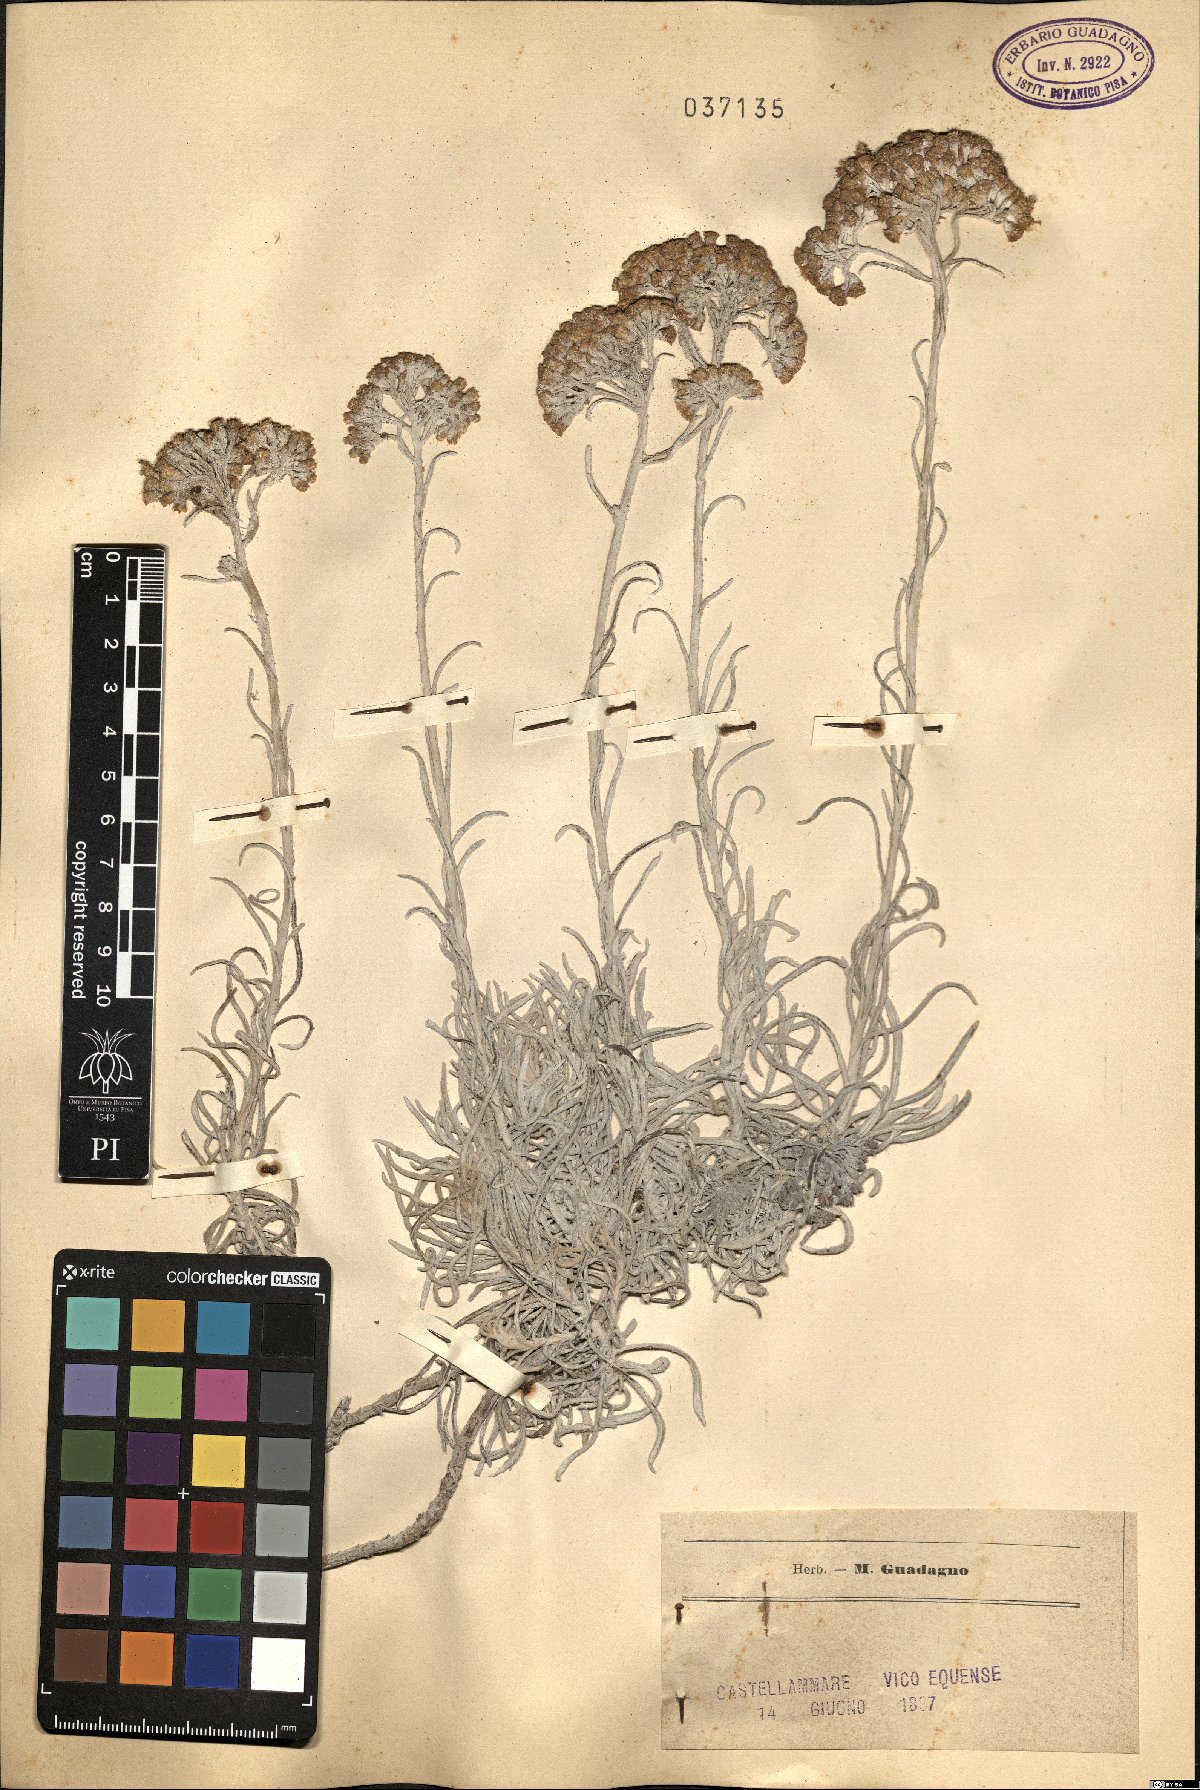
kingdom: Plantae
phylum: Tracheophyta
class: Magnoliopsida
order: Asterales
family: Asteraceae
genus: Helichrysum
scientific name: Helichrysum
